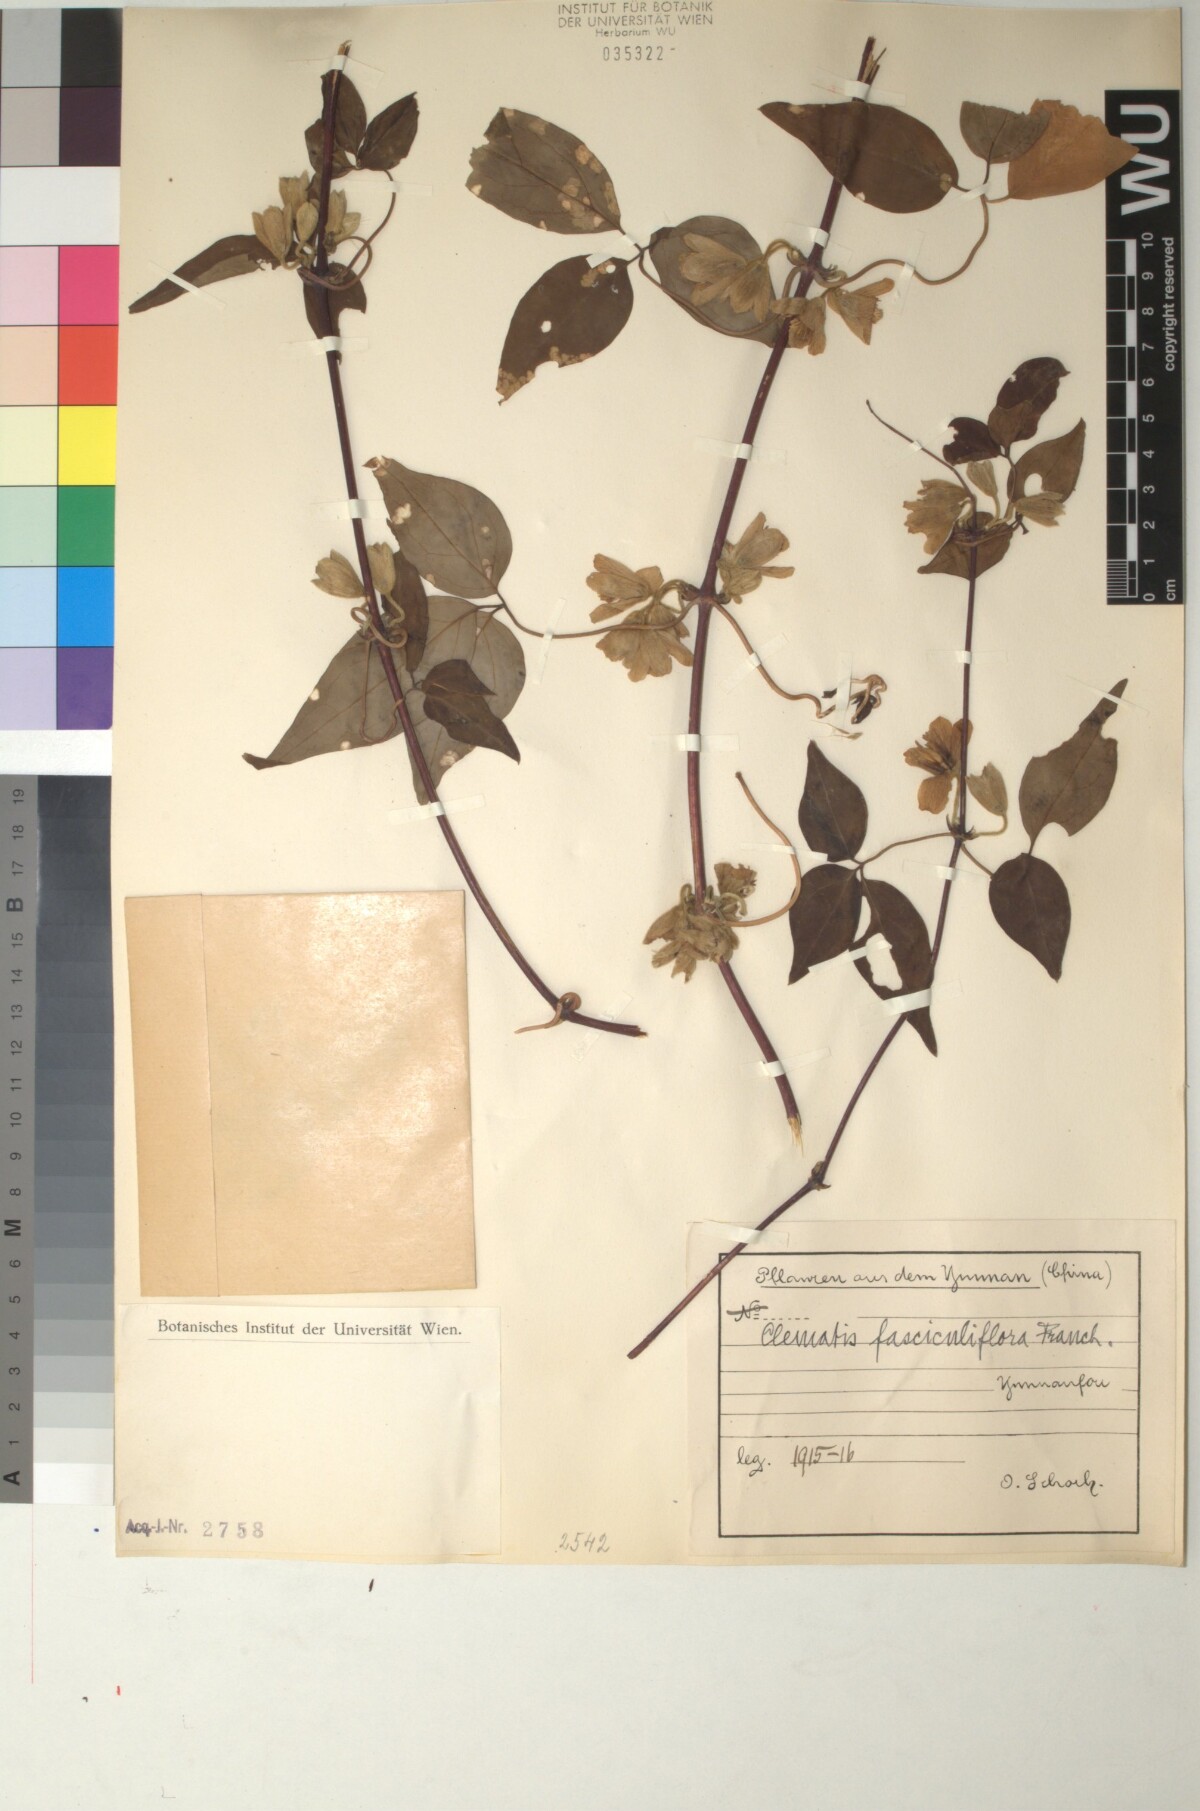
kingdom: Plantae
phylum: Tracheophyta
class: Magnoliopsida
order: Ranunculales
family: Ranunculaceae
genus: Clematis
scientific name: Clematis fasciculiflora
